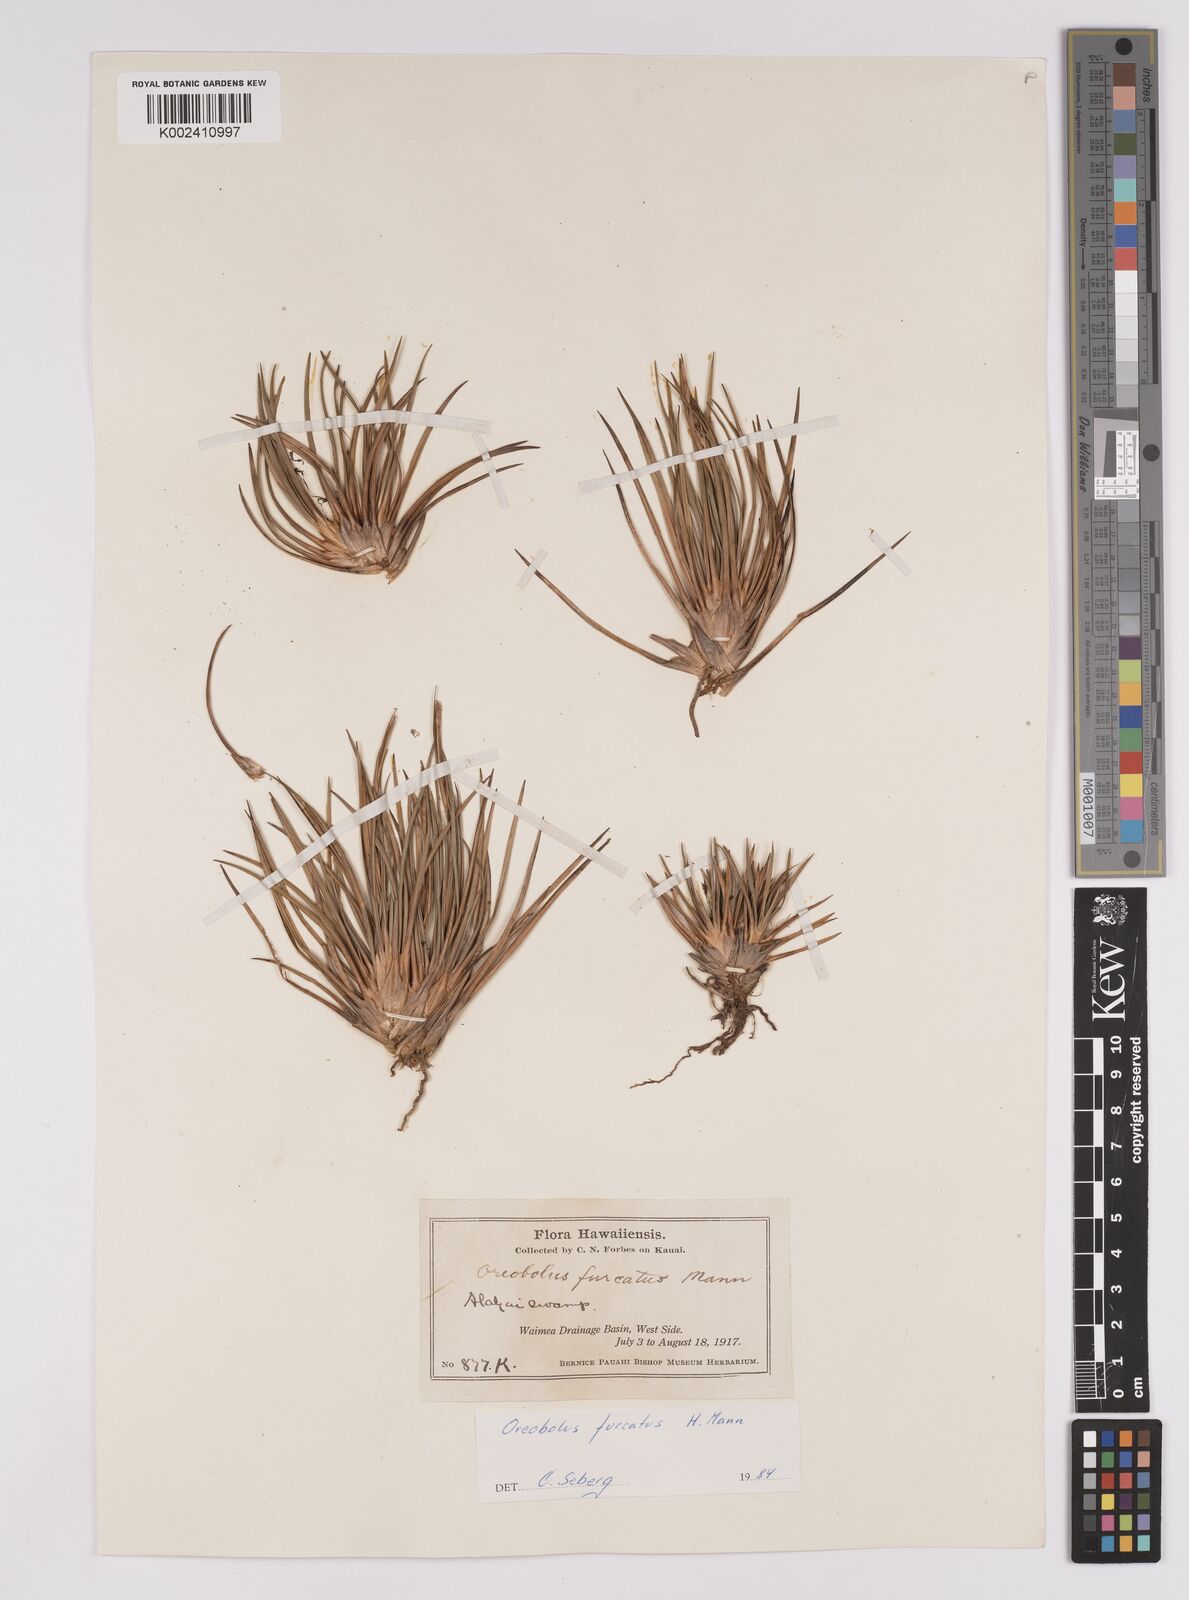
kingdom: Plantae
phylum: Tracheophyta
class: Liliopsida
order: Poales
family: Cyperaceae
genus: Oreobolus
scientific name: Oreobolus furcatus
